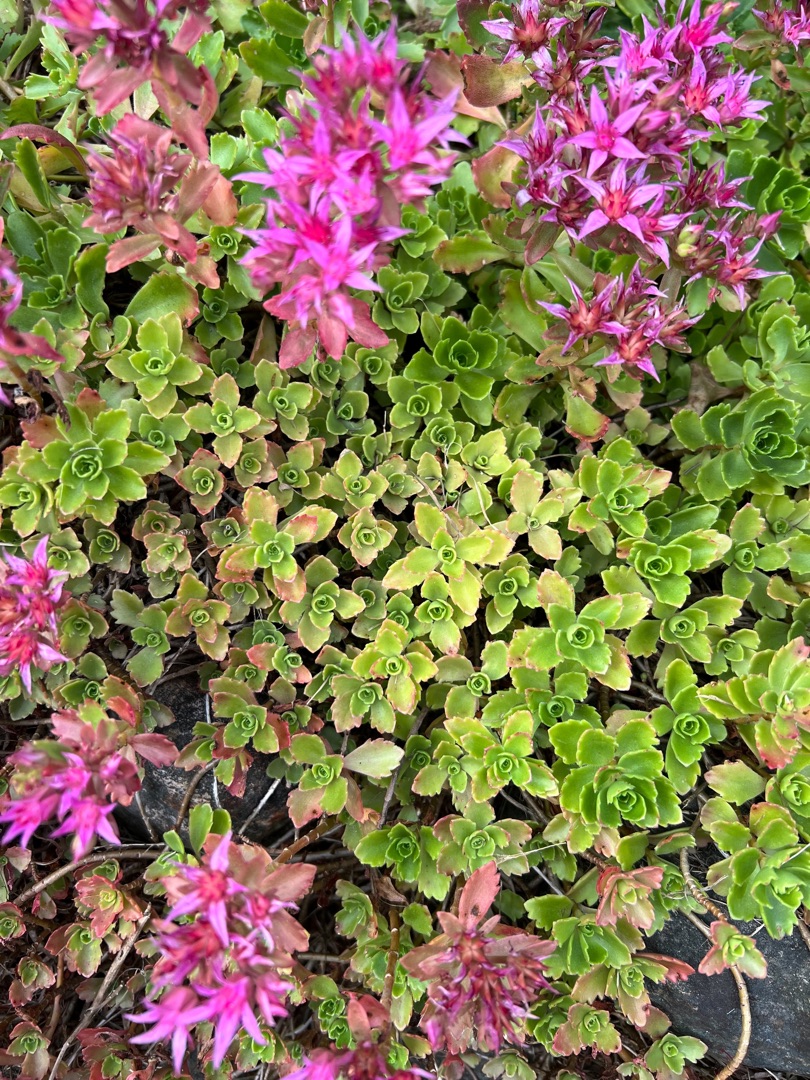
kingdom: Plantae
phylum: Tracheophyta
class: Magnoliopsida
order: Saxifragales
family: Crassulaceae
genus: Phedimus
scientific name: Phedimus spurius
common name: Rød stenurt
